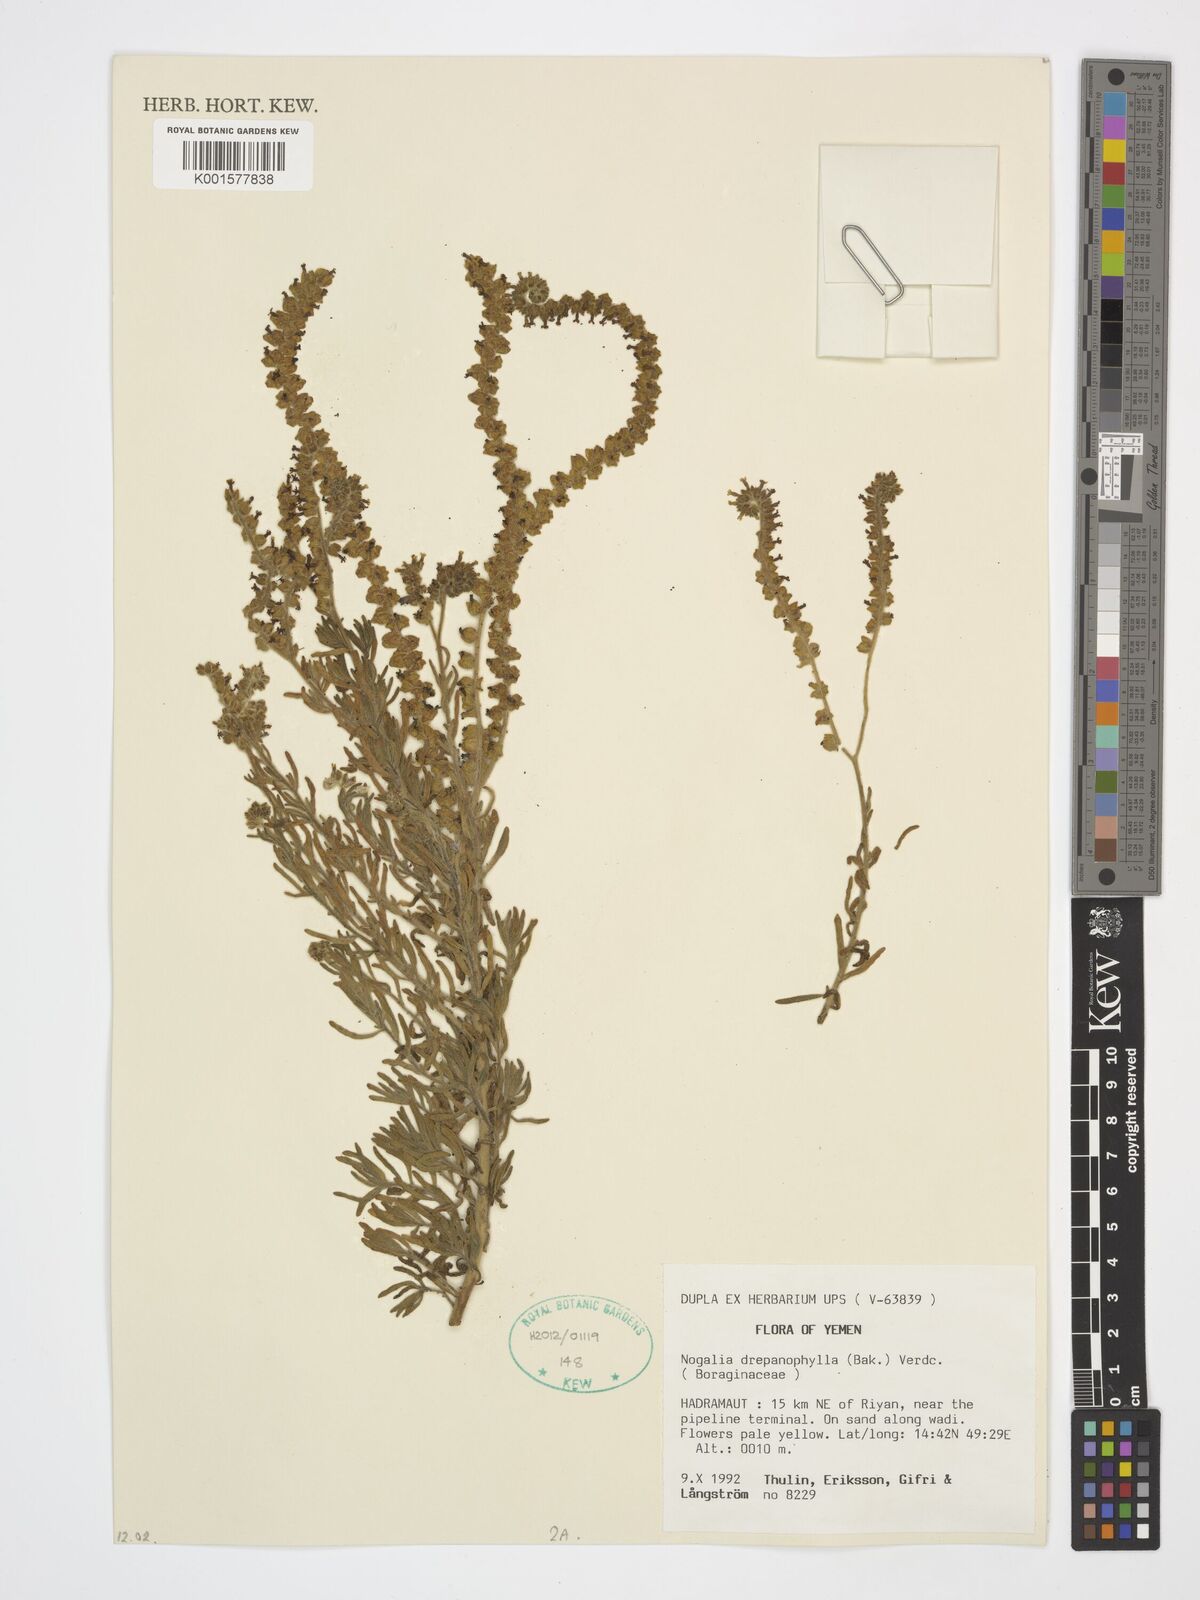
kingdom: Plantae
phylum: Tracheophyta
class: Magnoliopsida
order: Boraginales
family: Heliotropiaceae
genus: Heliotropium
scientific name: Heliotropium drepanophyllum
